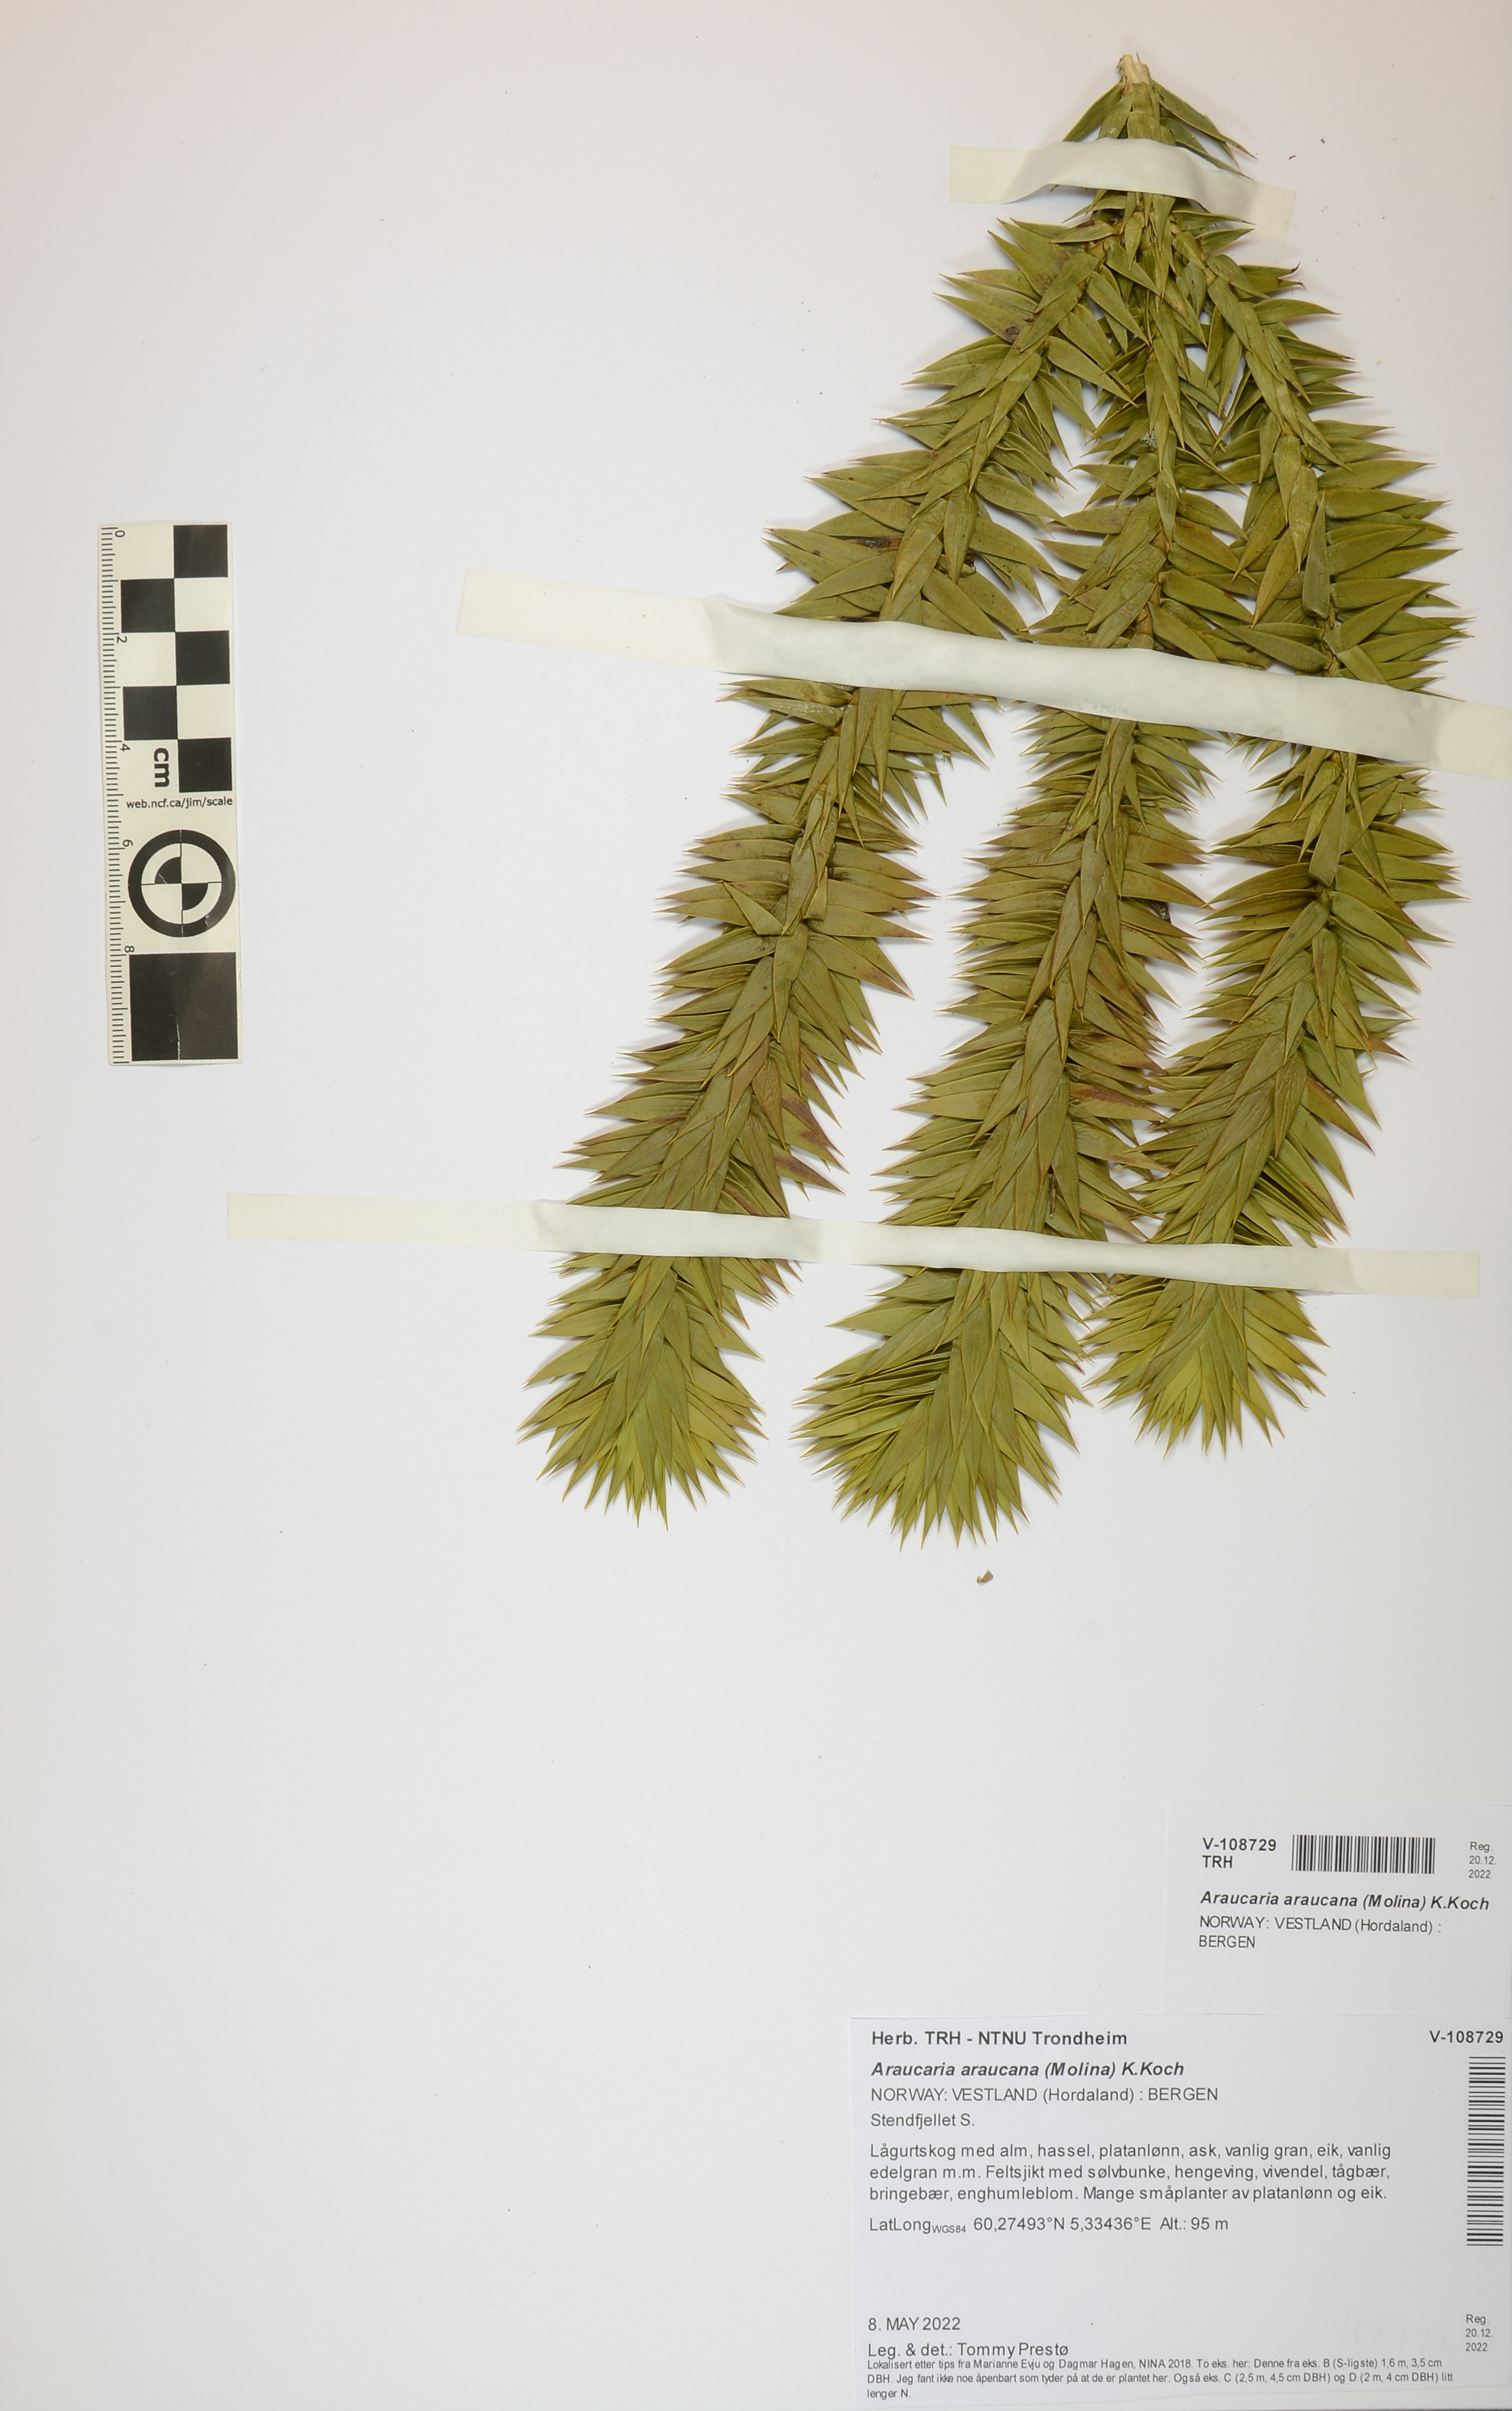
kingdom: Plantae
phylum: Tracheophyta
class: Pinopsida
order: Pinales
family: Araucariaceae
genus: Araucaria
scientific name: Araucaria araucana
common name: Monkey-puzzle
